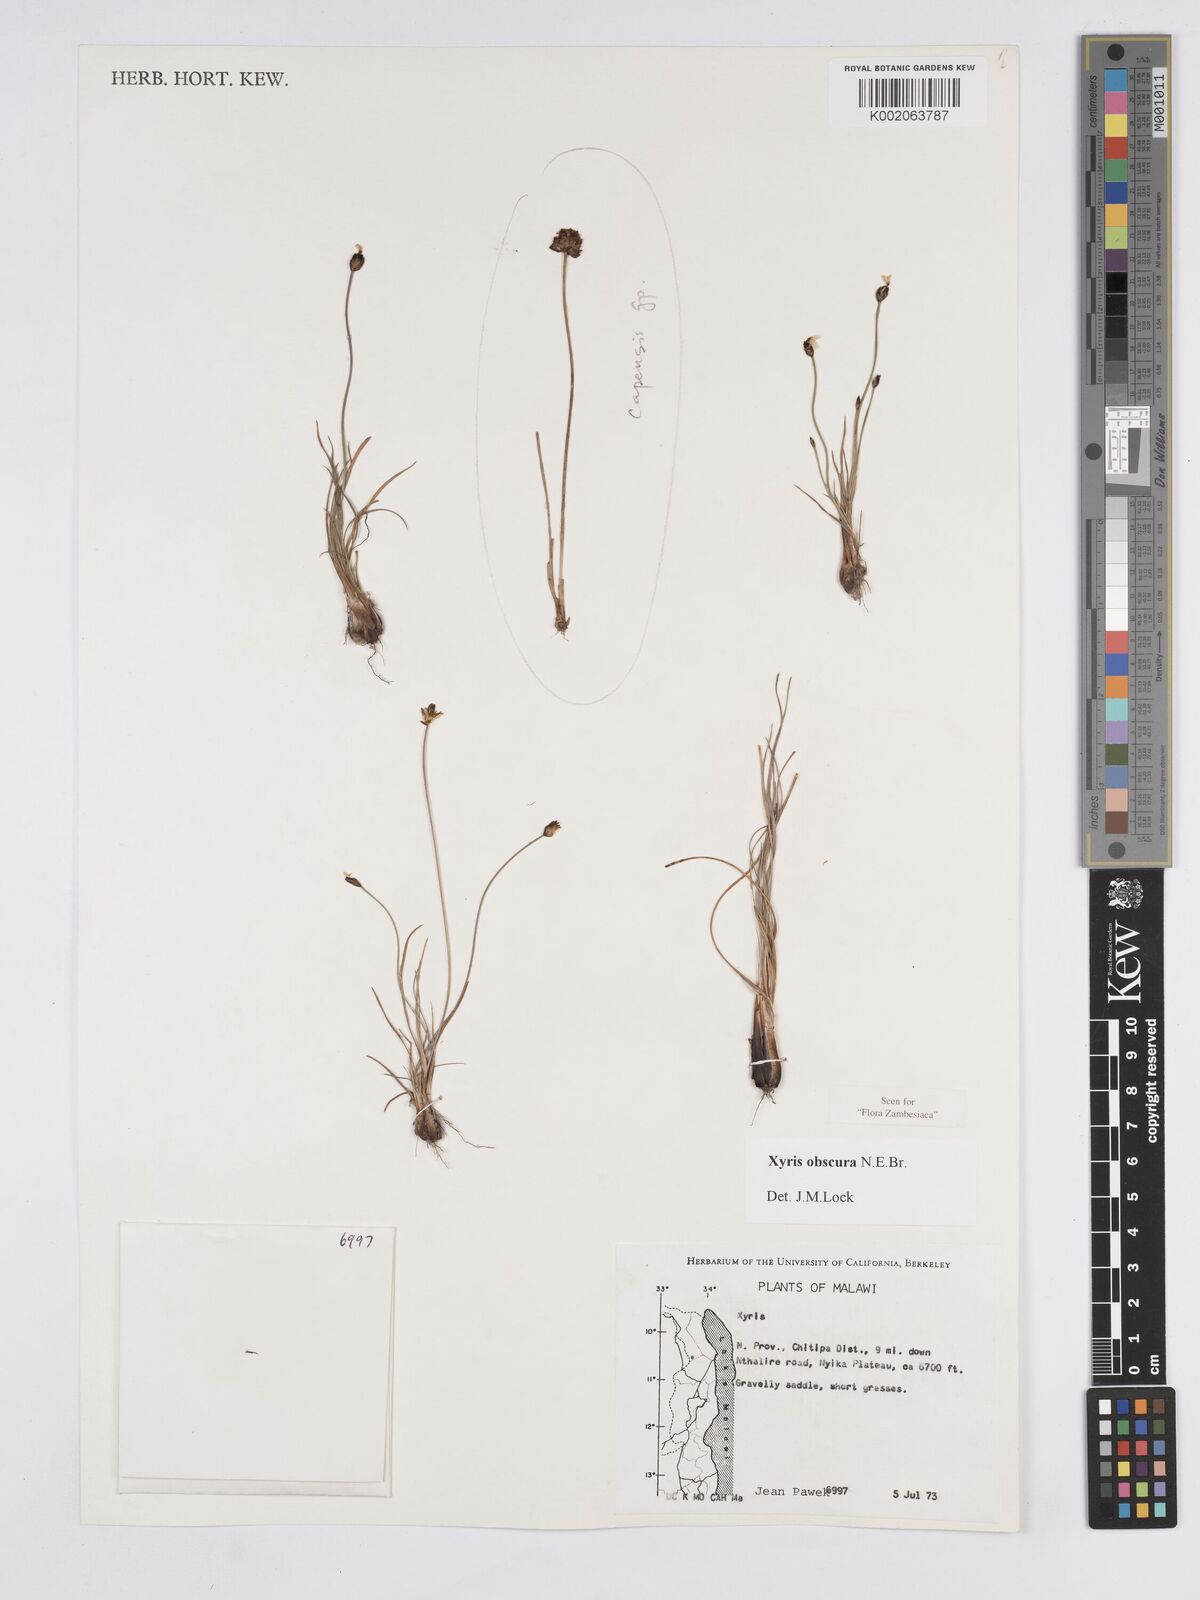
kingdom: Plantae
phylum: Tracheophyta
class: Liliopsida
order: Poales
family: Xyridaceae
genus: Xyris
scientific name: Xyris obscura
